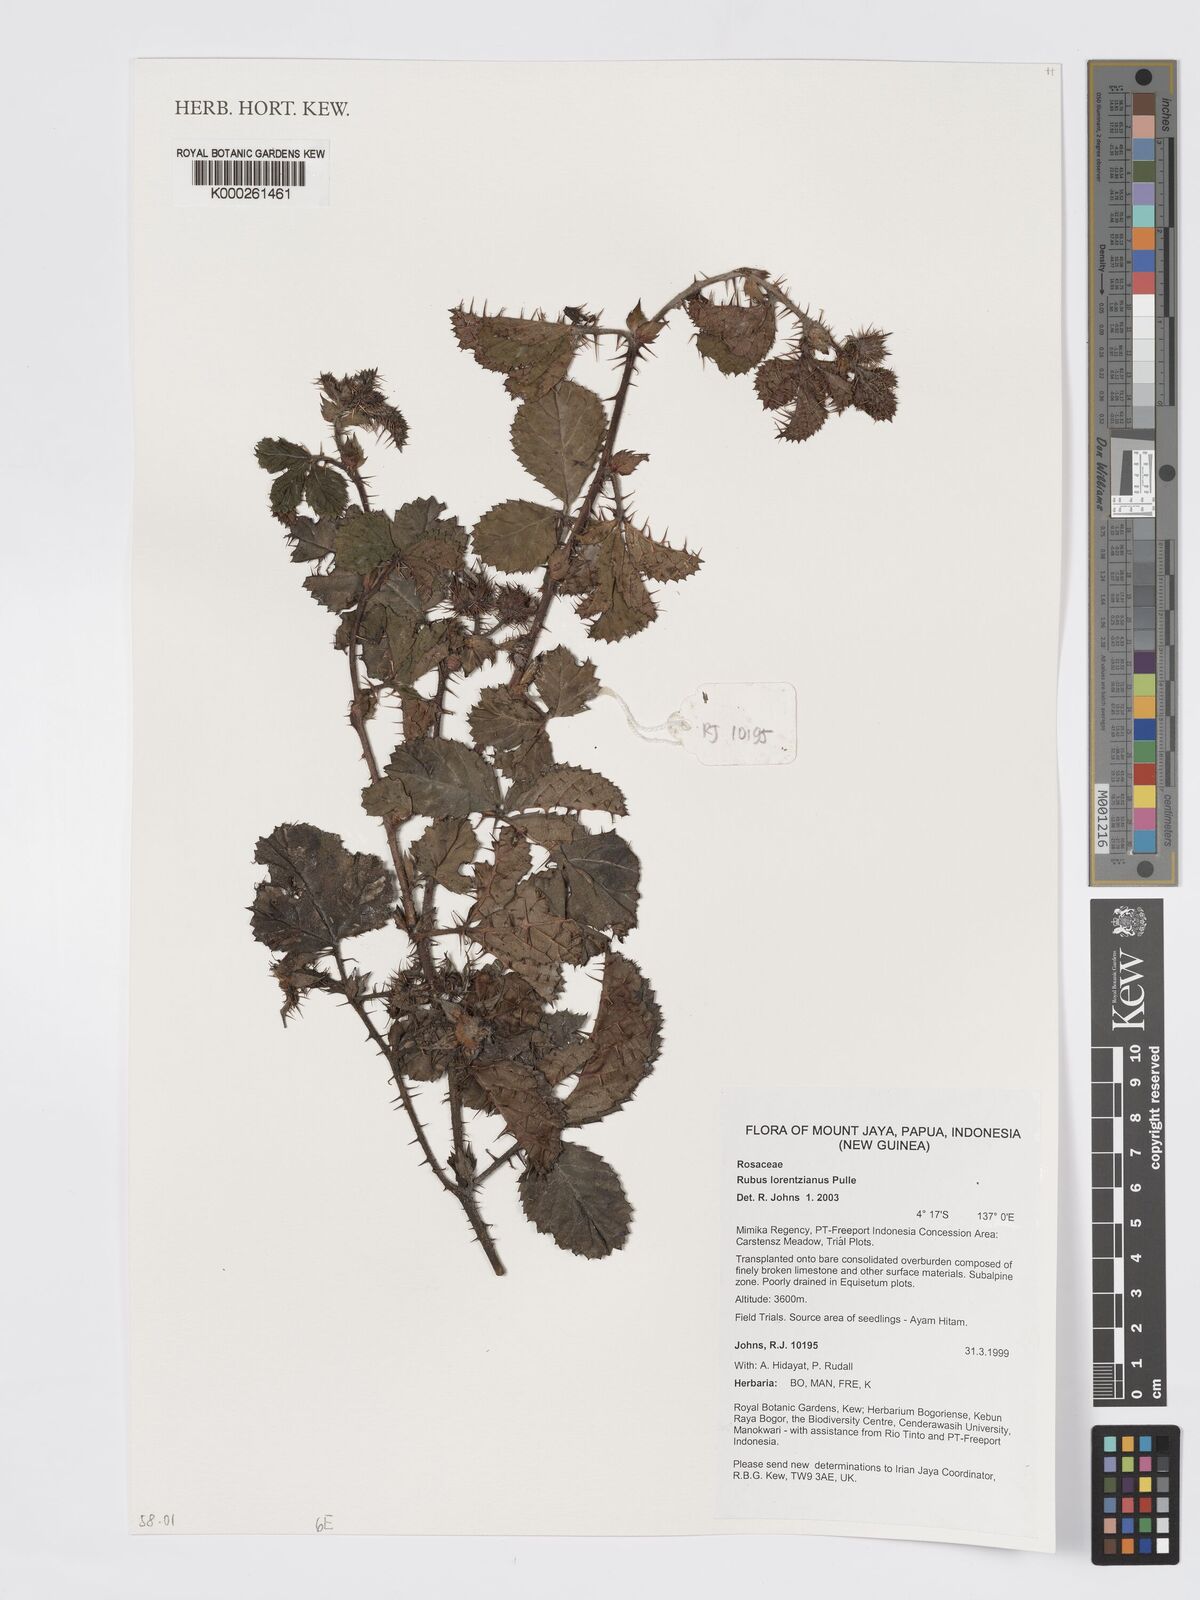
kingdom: Plantae
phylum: Tracheophyta
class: Magnoliopsida
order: Rosales
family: Rosaceae
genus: Rubus
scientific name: Rubus lorentzianus
